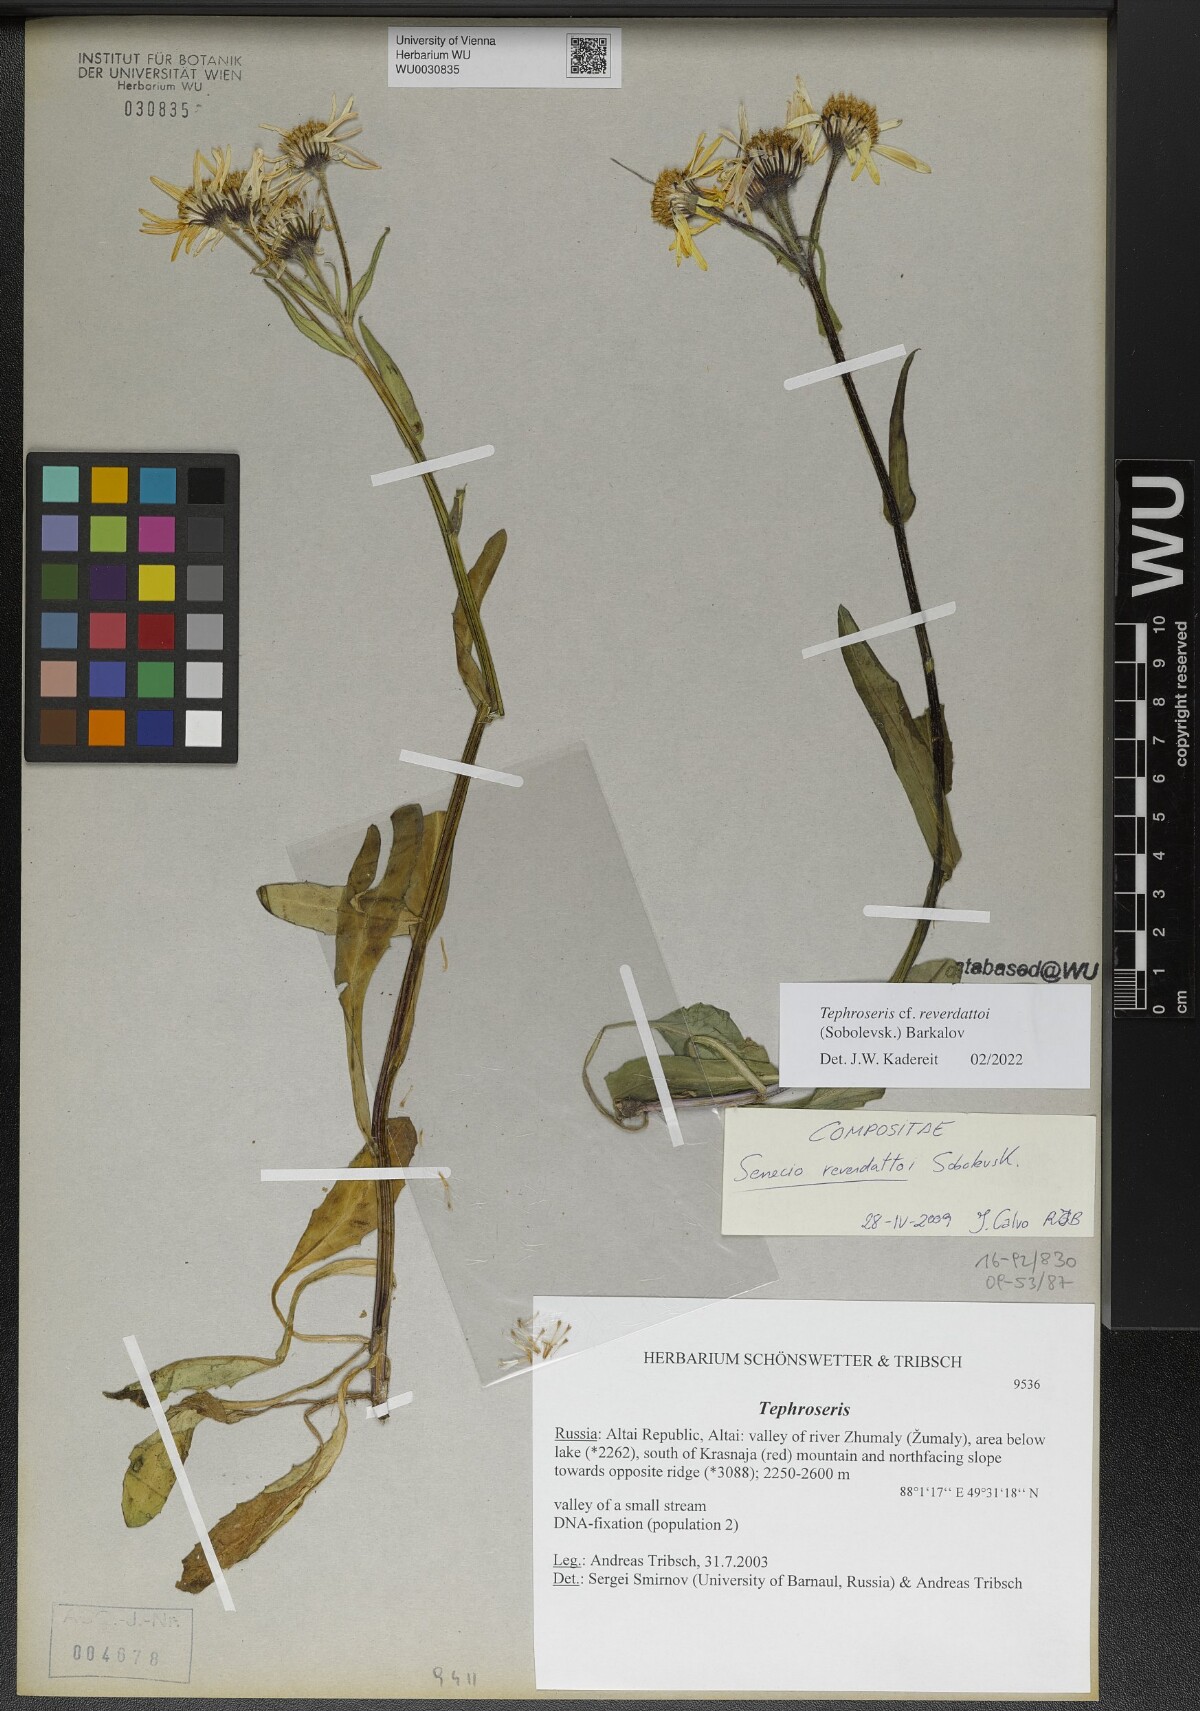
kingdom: Plantae
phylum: Tracheophyta
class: Magnoliopsida
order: Asterales
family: Asteraceae
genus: Tephroseris
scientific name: Tephroseris turczaninovii
